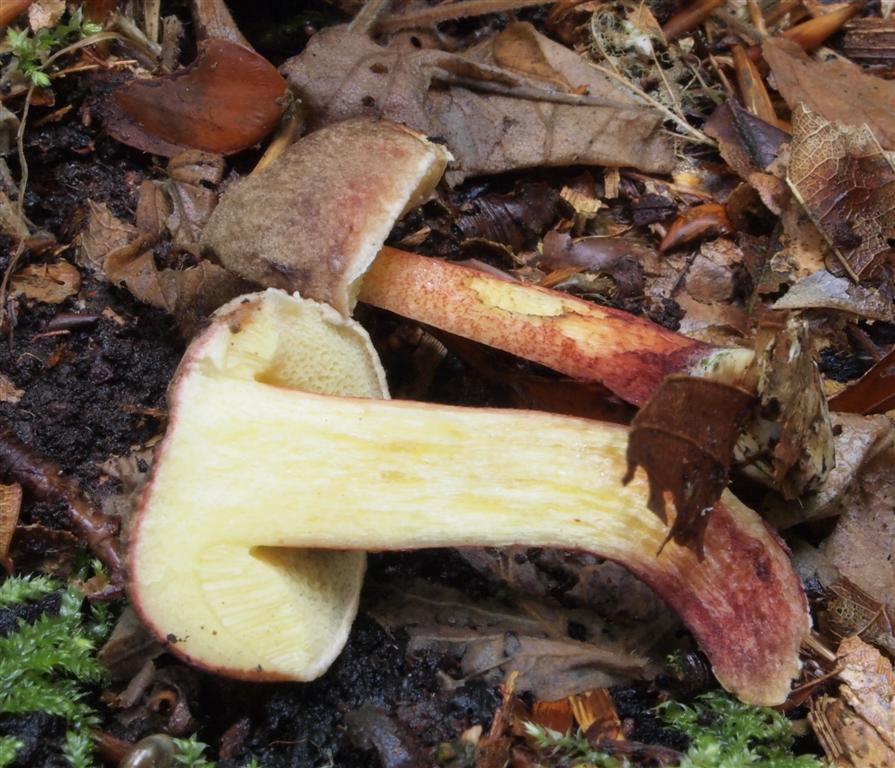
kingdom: Fungi
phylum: Basidiomycota
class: Agaricomycetes
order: Boletales
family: Boletaceae
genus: Xerocomellus
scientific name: Xerocomellus pruinatus
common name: dugget rørhat
